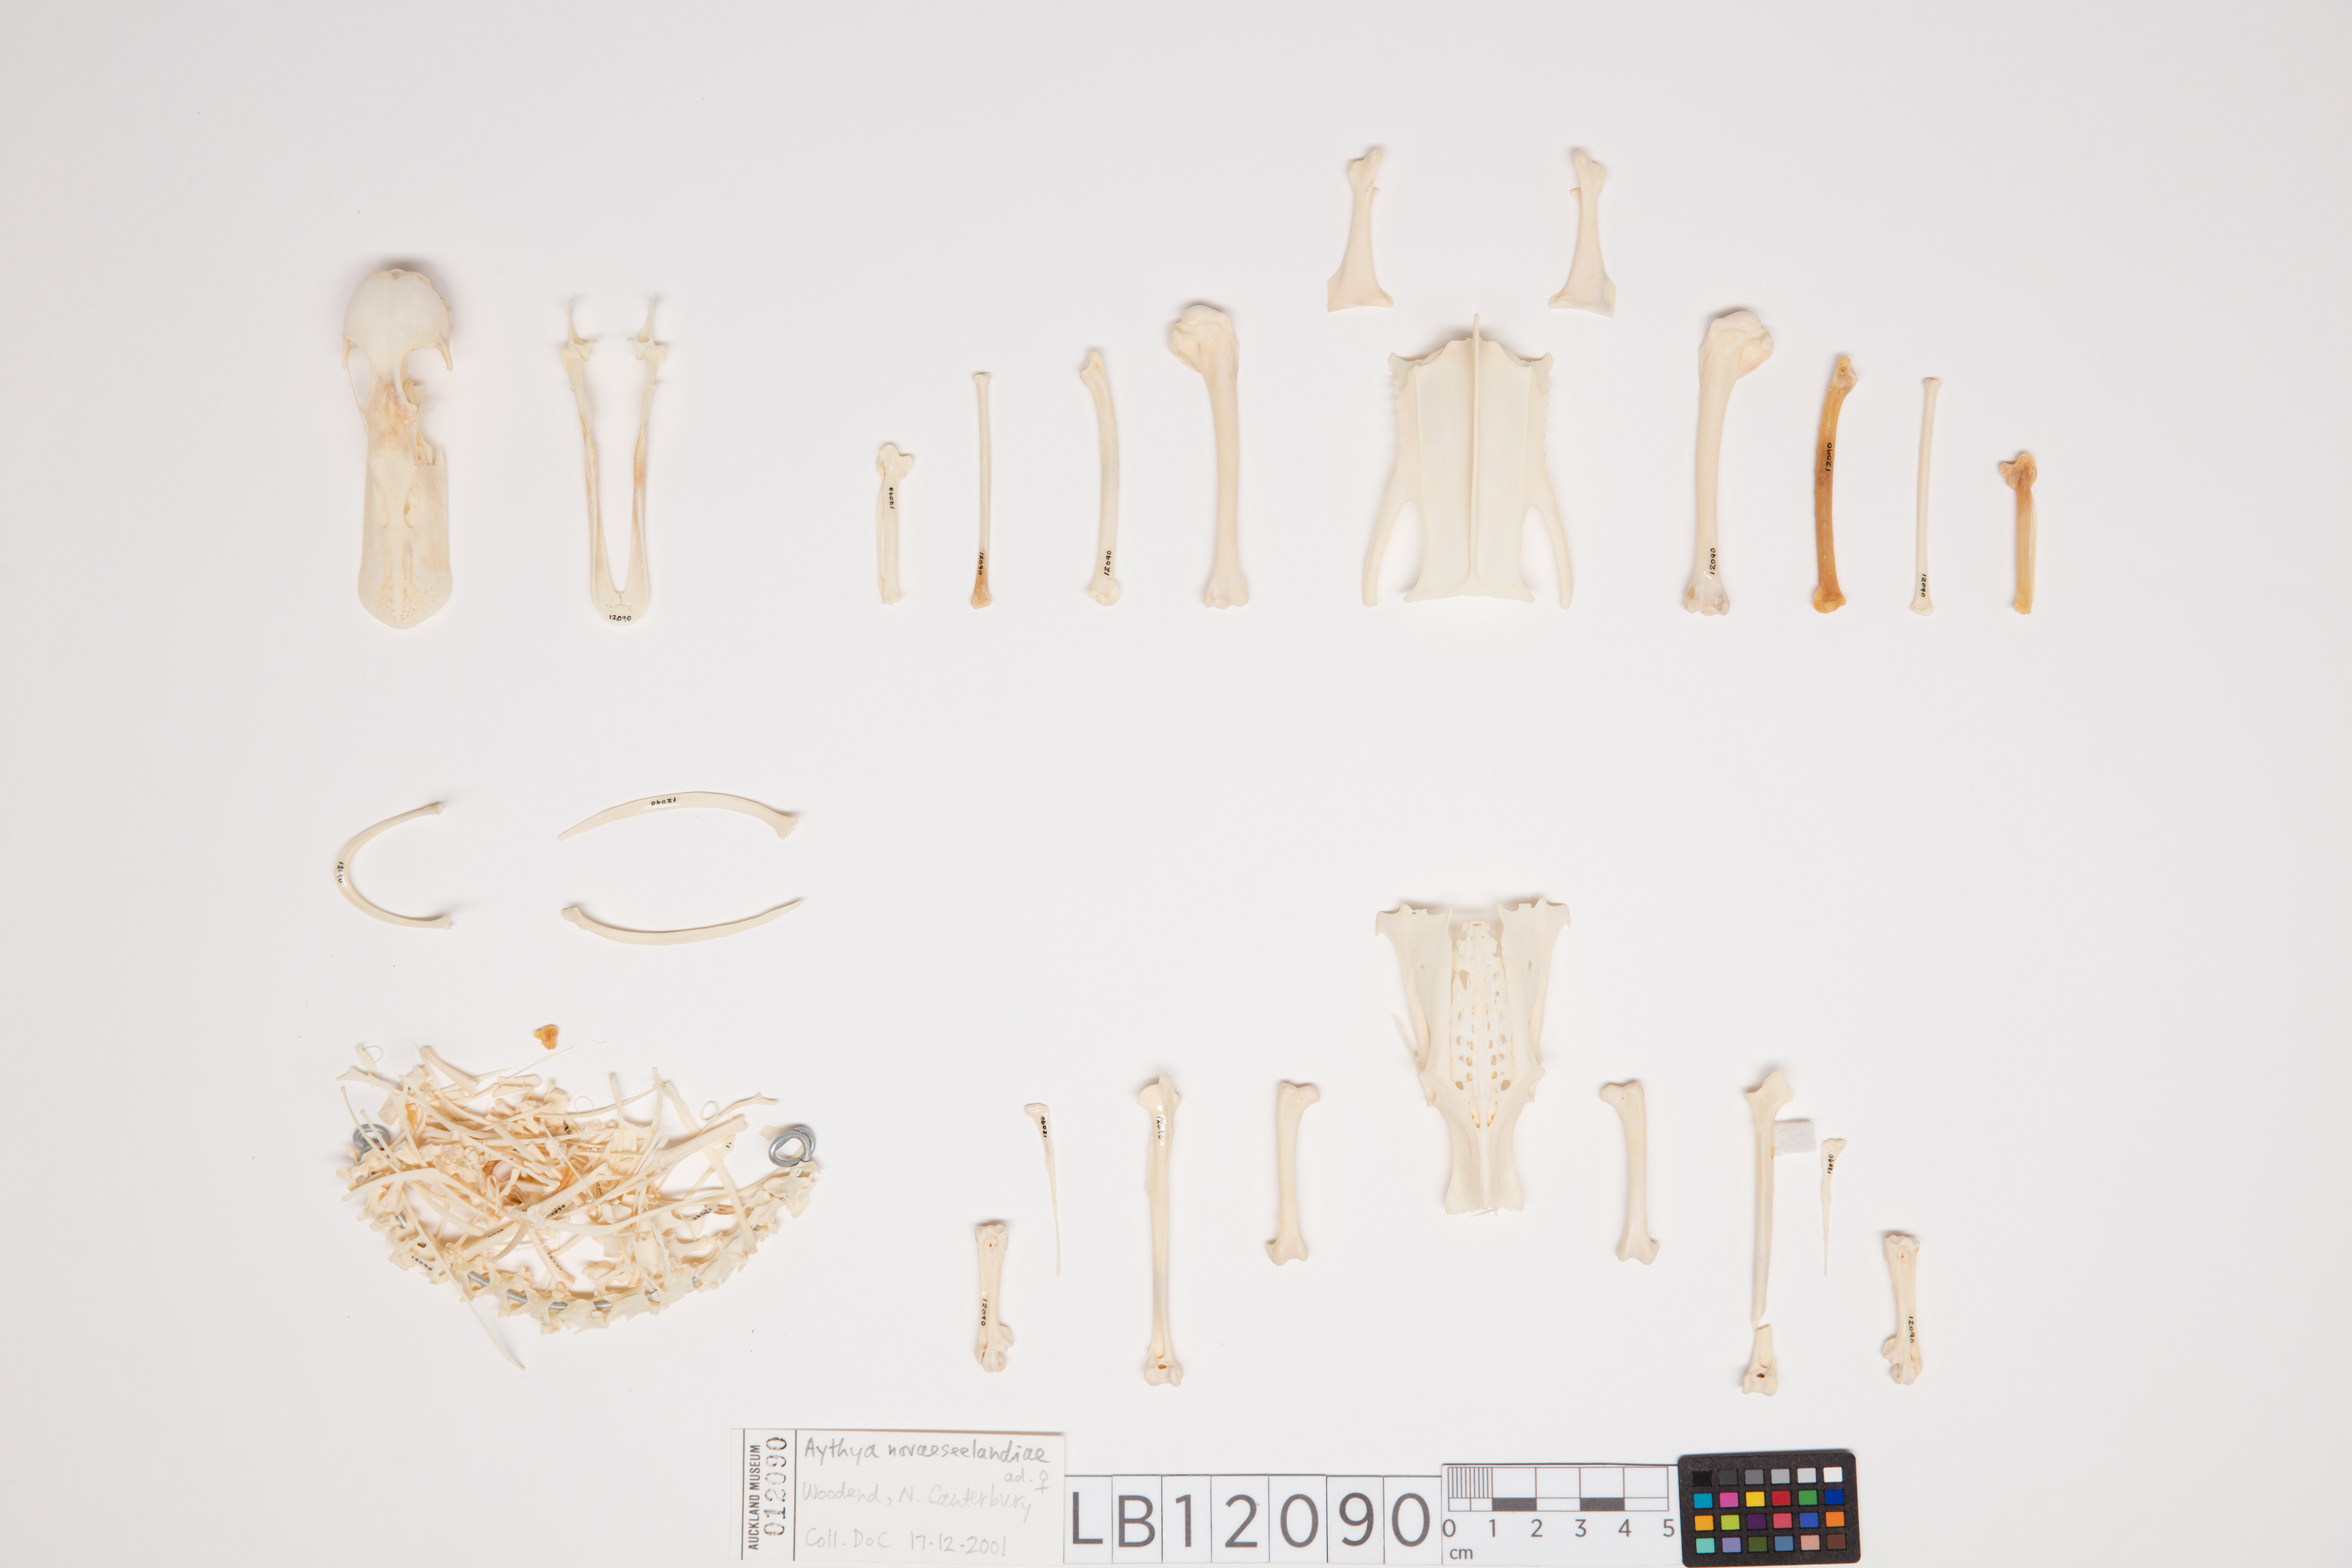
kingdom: Animalia
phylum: Chordata
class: Aves
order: Anseriformes
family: Anatidae
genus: Aythya
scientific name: Aythya novaeseelandiae
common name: New zealand scaup
